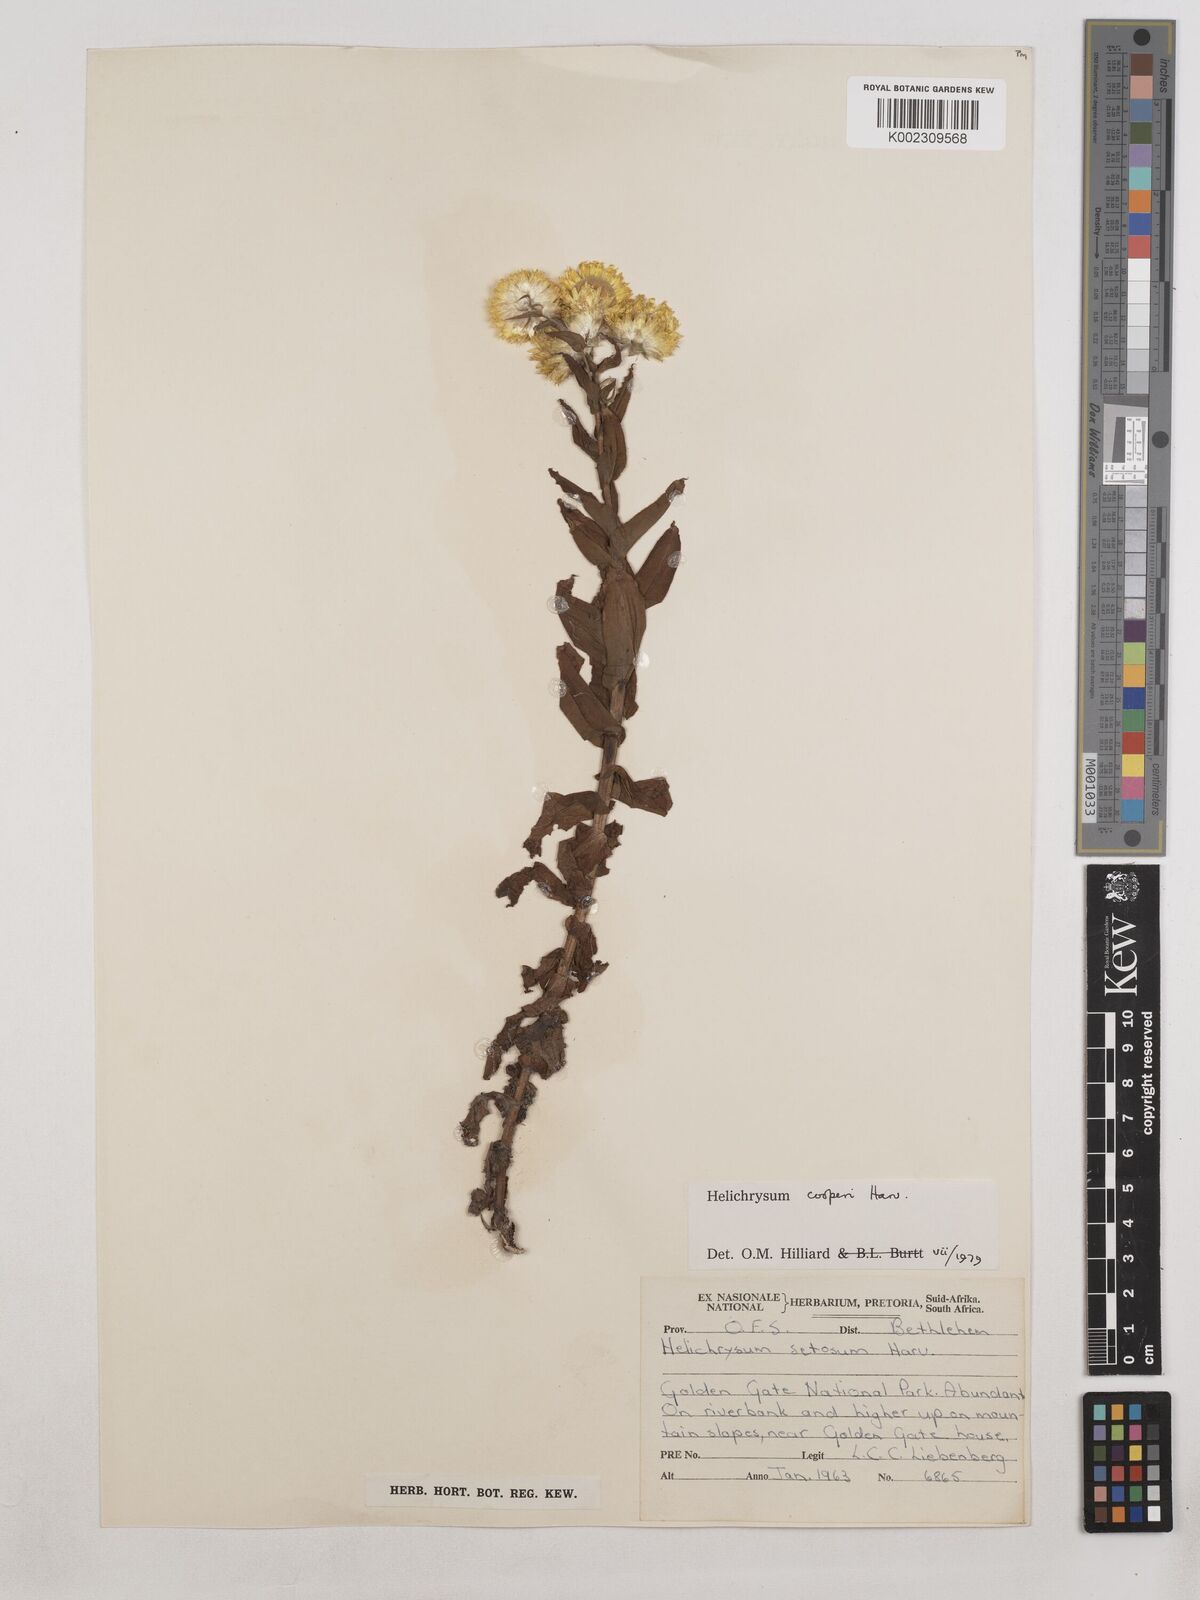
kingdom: Plantae
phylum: Tracheophyta
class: Magnoliopsida
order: Asterales
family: Asteraceae
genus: Helichrysum
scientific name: Helichrysum cooperi
